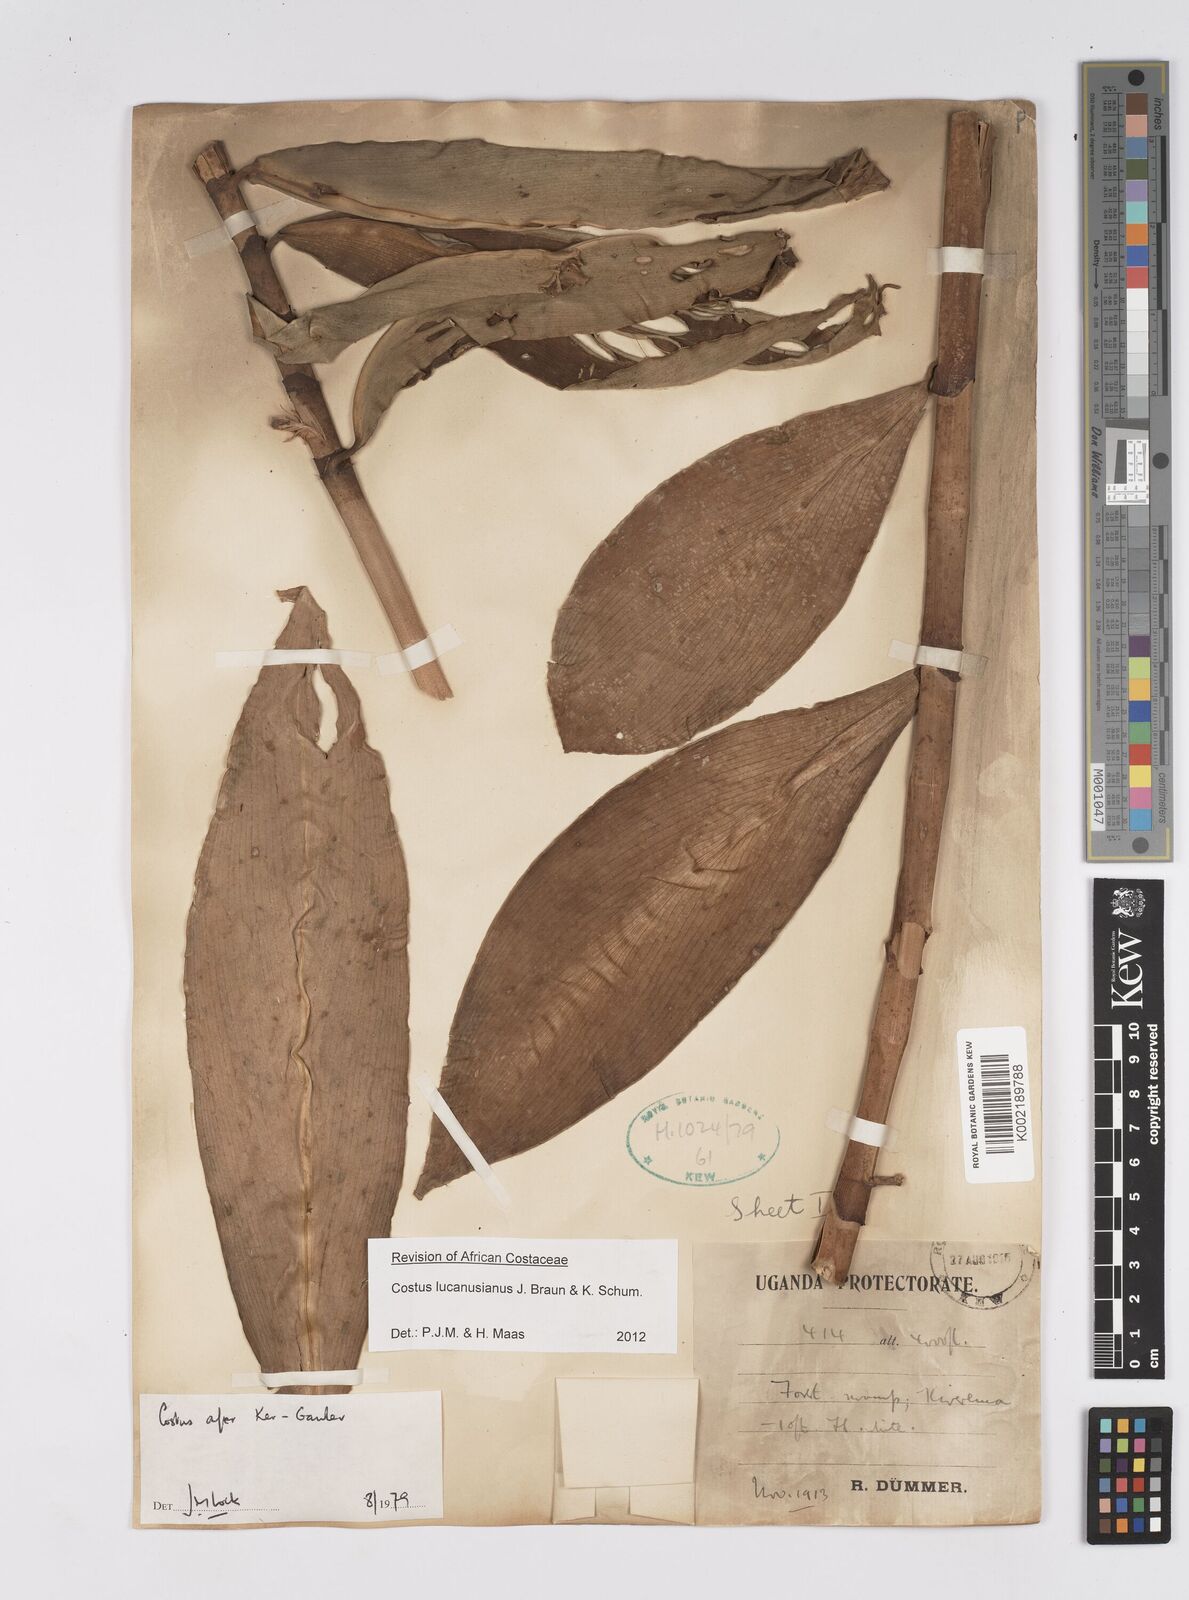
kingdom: Plantae
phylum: Tracheophyta
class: Liliopsida
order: Zingiberales
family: Costaceae
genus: Costus
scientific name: Costus lucanusianus
